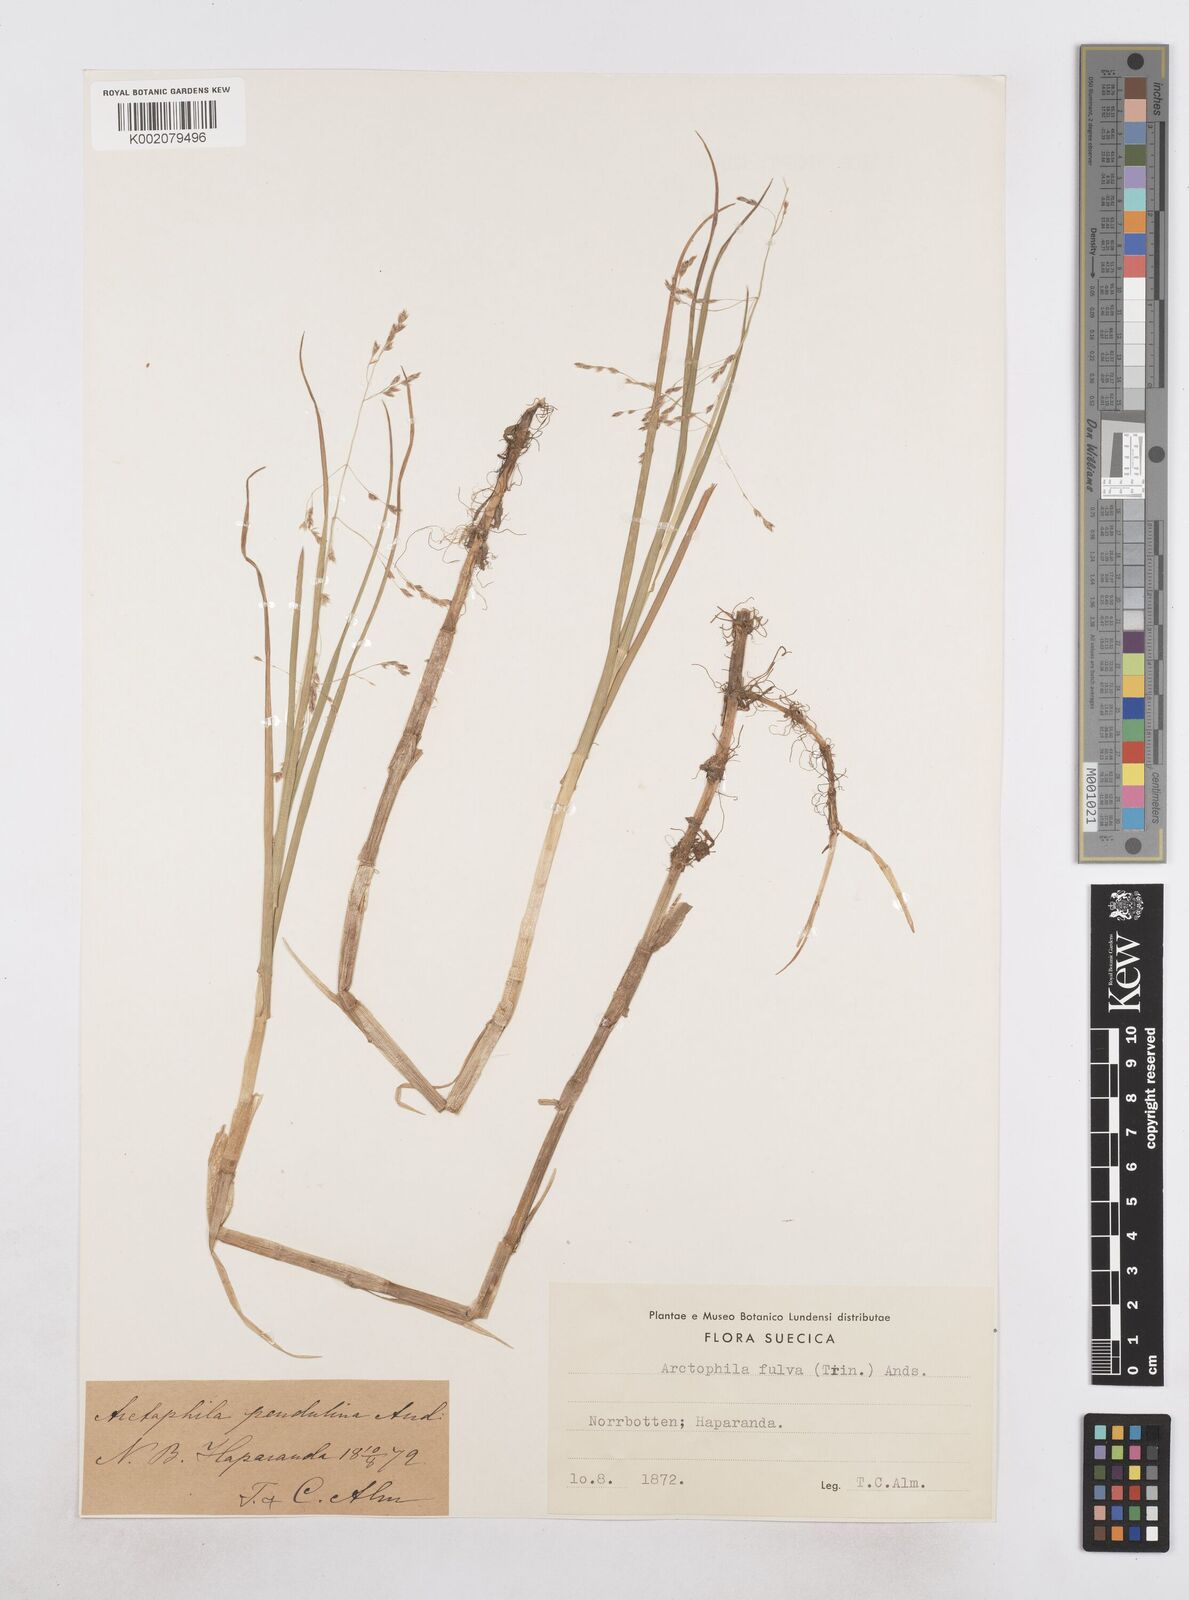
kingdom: Plantae
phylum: Tracheophyta
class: Liliopsida
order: Poales
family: Poaceae
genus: Dupontia
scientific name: Dupontia fulva
